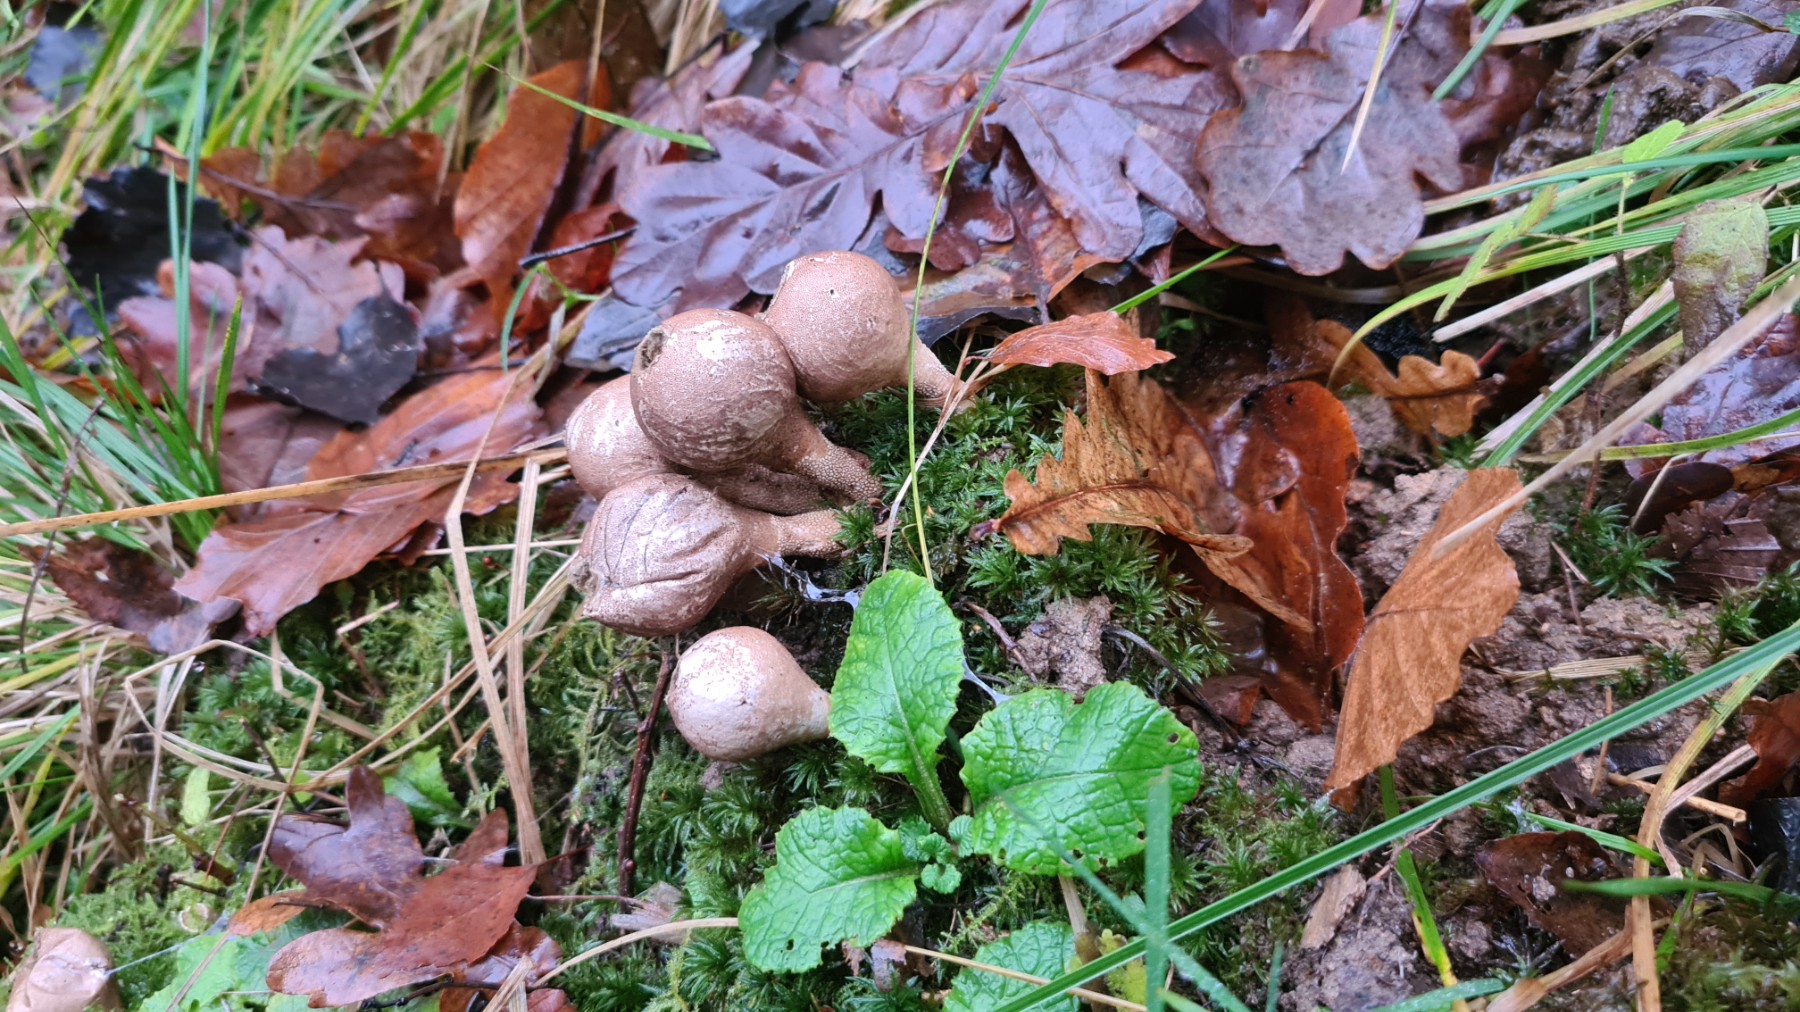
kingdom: Fungi
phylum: Basidiomycota
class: Agaricomycetes
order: Agaricales
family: Lycoperdaceae
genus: Apioperdon
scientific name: Apioperdon pyriforme
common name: pære-støvbold
